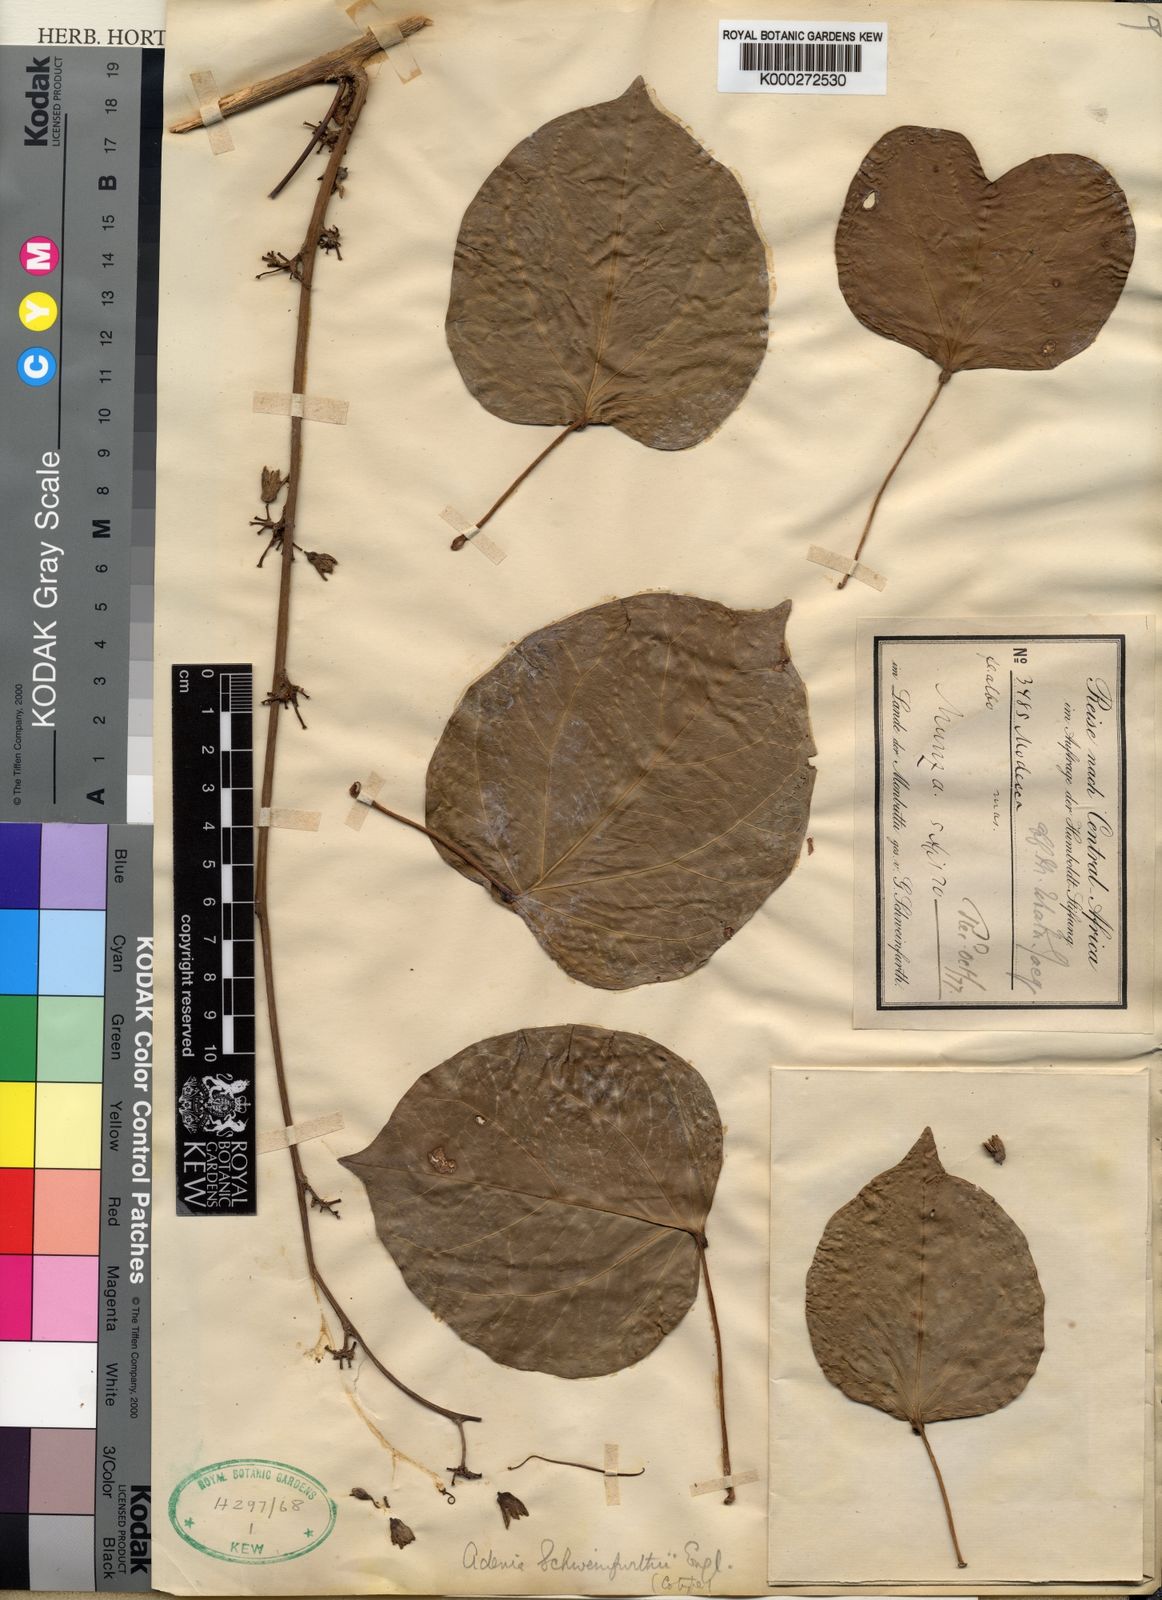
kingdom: Plantae
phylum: Tracheophyta
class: Magnoliopsida
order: Malpighiales
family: Passifloraceae
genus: Adenia
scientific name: Adenia lobata
